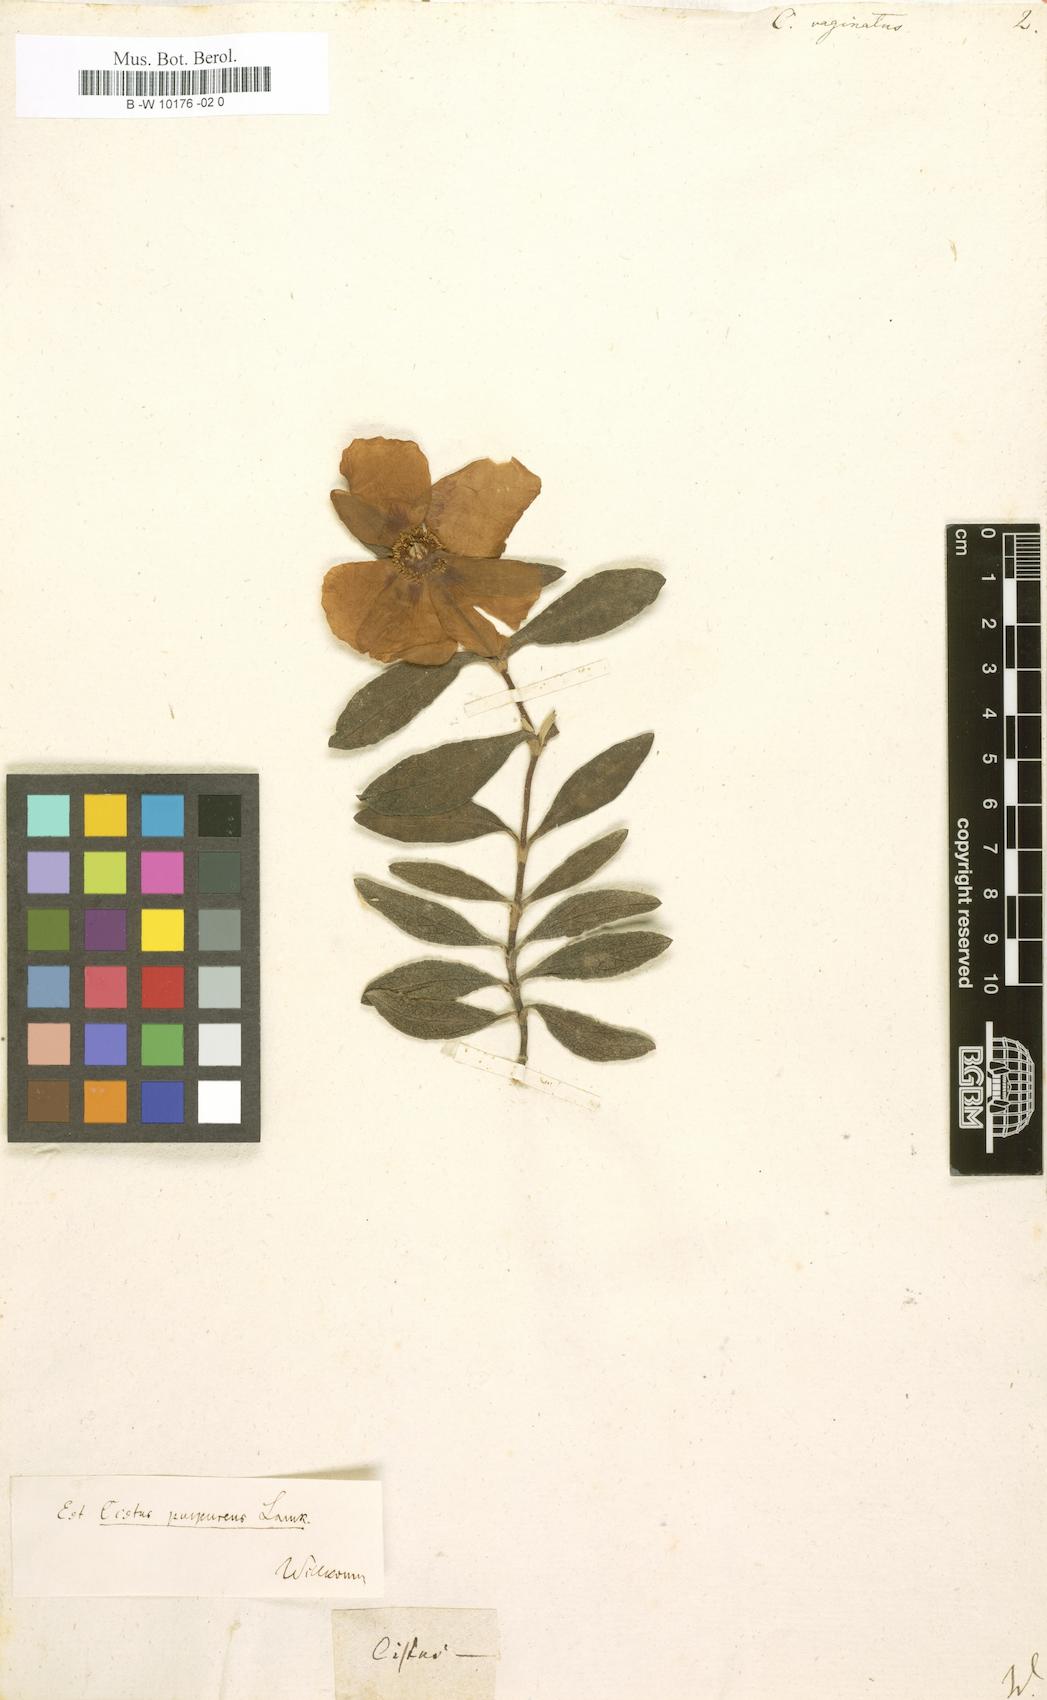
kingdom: Plantae
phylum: Tracheophyta
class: Magnoliopsida
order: Malvales
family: Cistaceae
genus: Cistus
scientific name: Cistus symphytifolius
